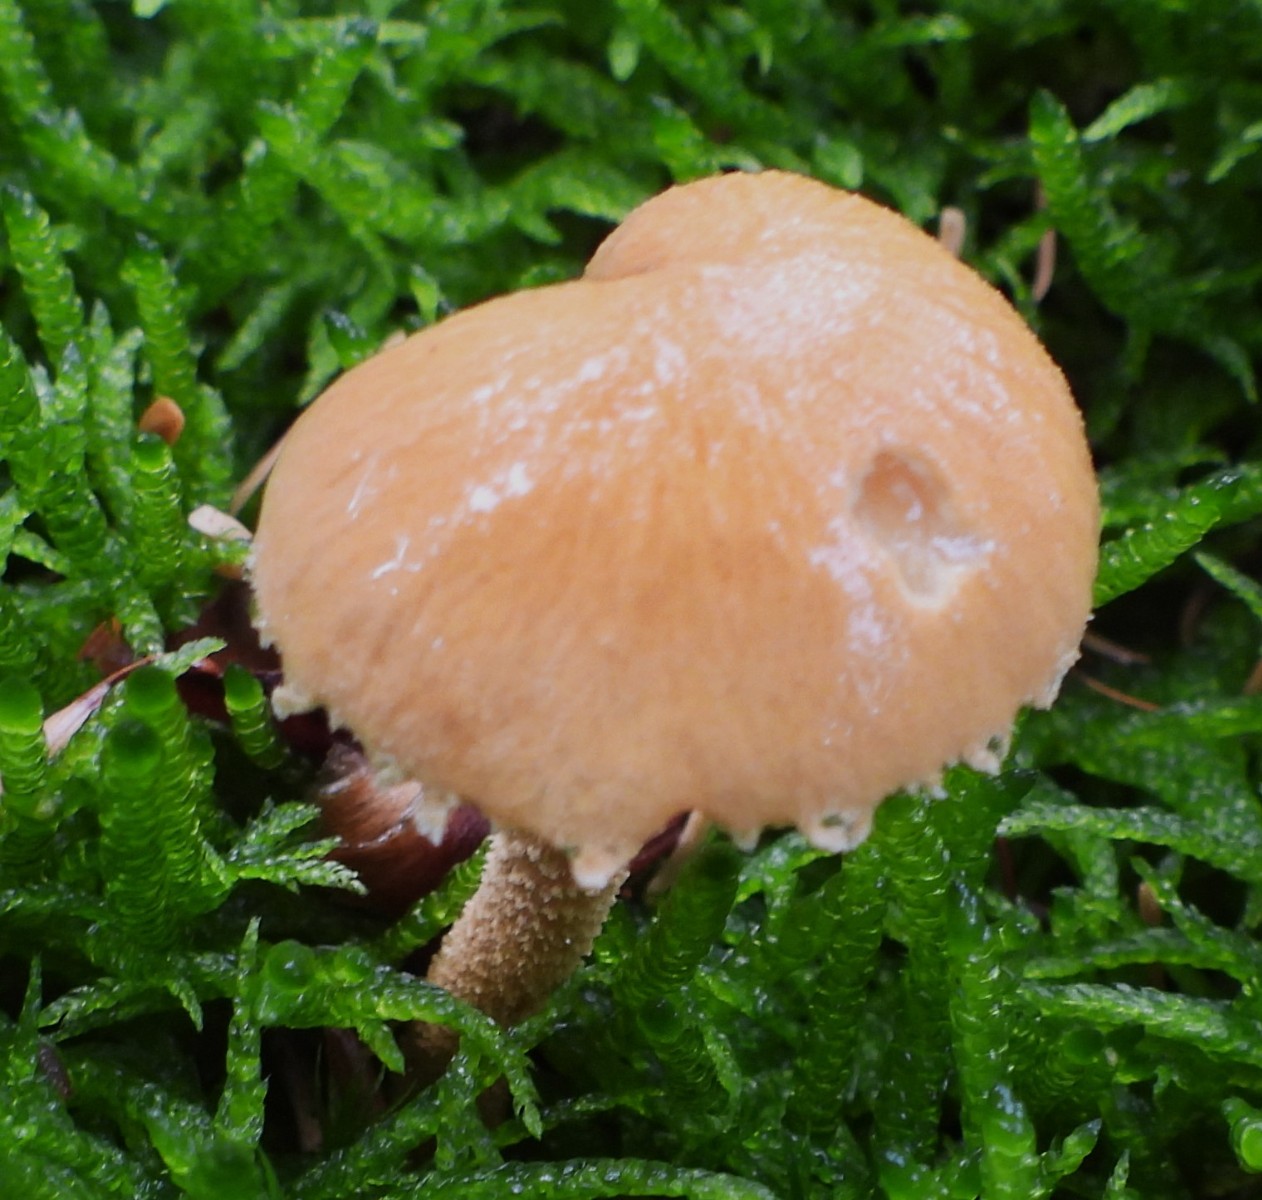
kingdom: Fungi
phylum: Basidiomycota
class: Agaricomycetes
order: Agaricales
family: Tricholomataceae
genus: Cystoderma
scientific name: Cystoderma amianthinum
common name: okkergul grynhat
